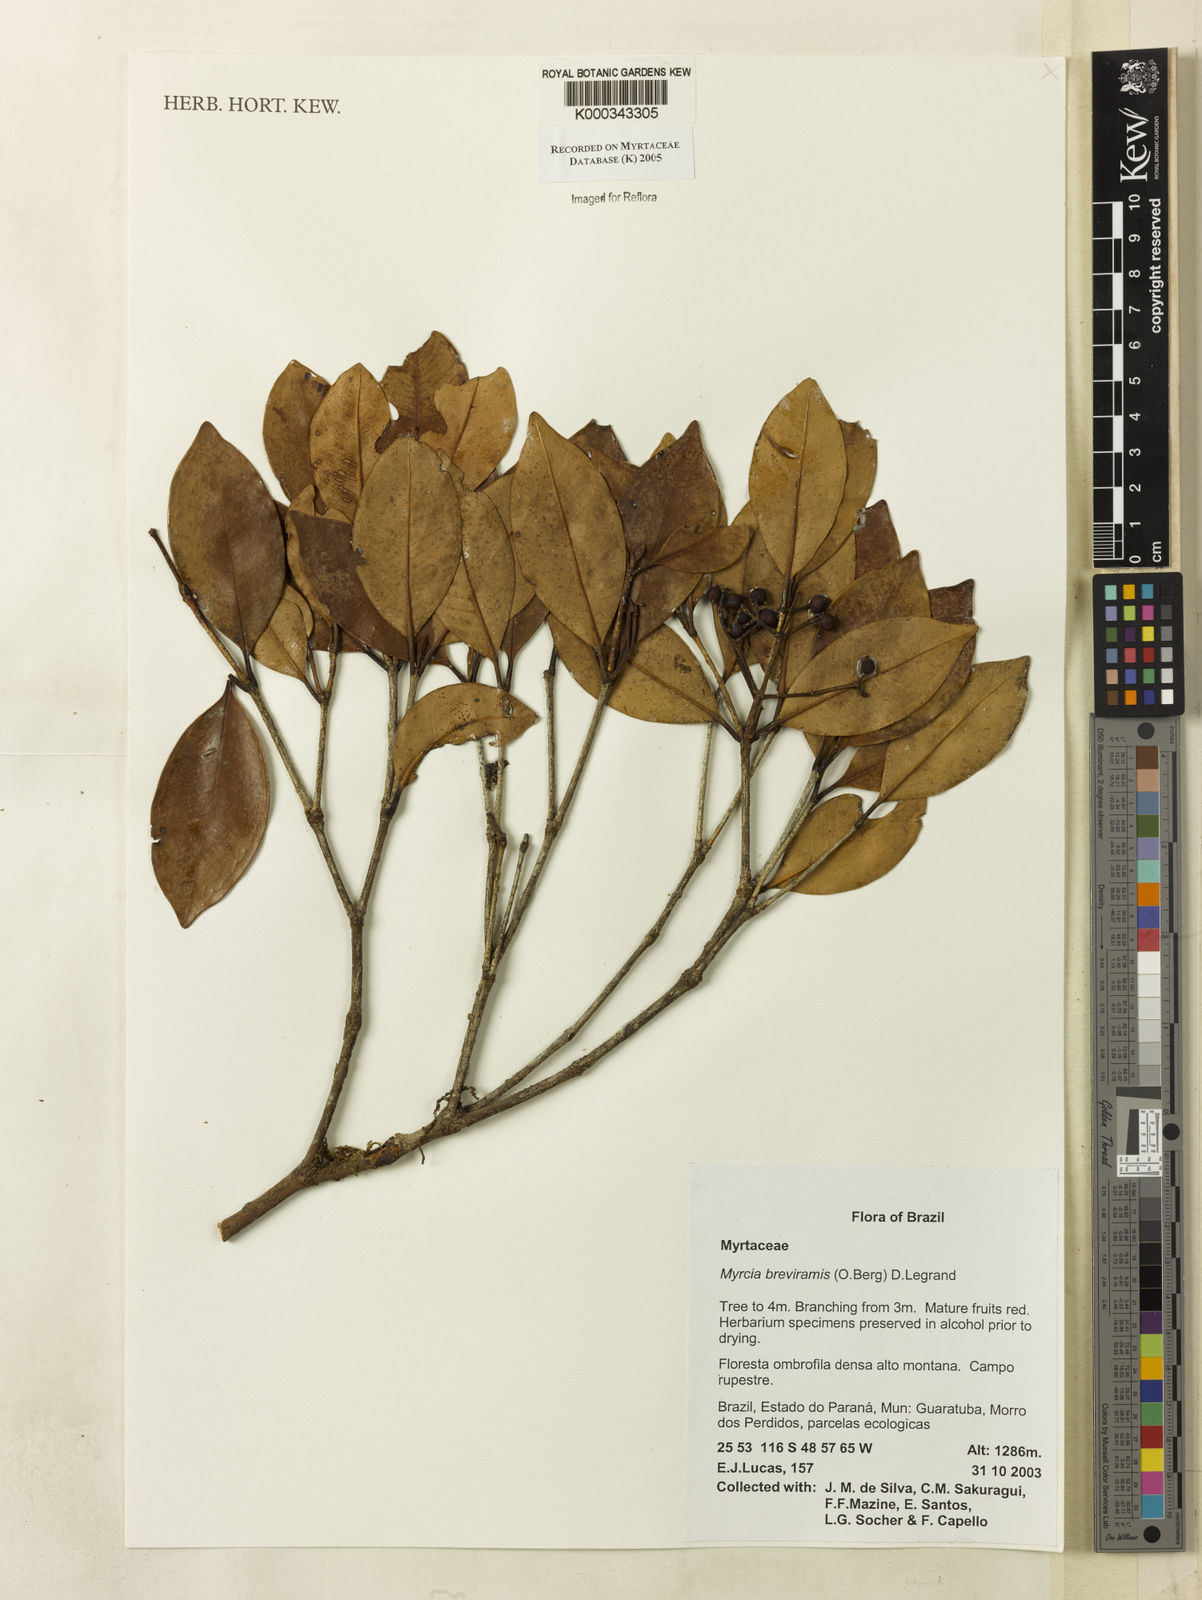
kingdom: Plantae
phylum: Tracheophyta
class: Magnoliopsida
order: Myrtales
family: Myrtaceae
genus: Myrcia
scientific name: Myrcia pulchra
